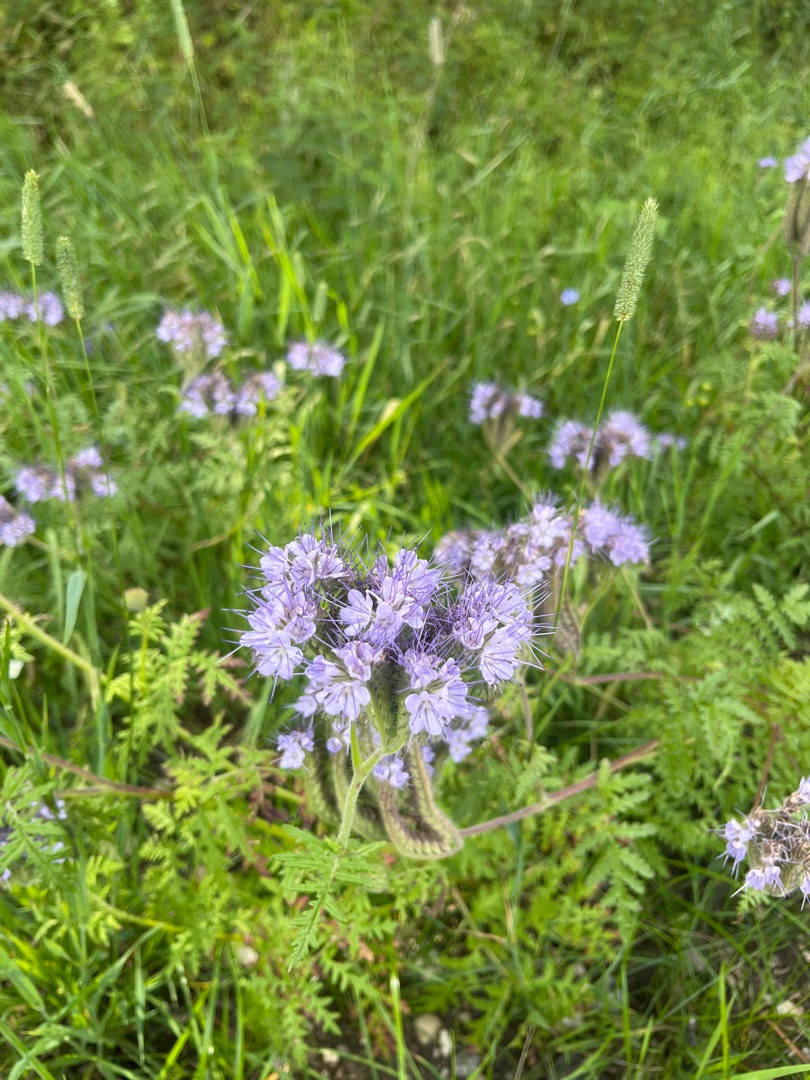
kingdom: Plantae
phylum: Tracheophyta
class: Magnoliopsida
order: Boraginales
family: Hydrophyllaceae
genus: Phacelia
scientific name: Phacelia tanacetifolia
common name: Honningurt
